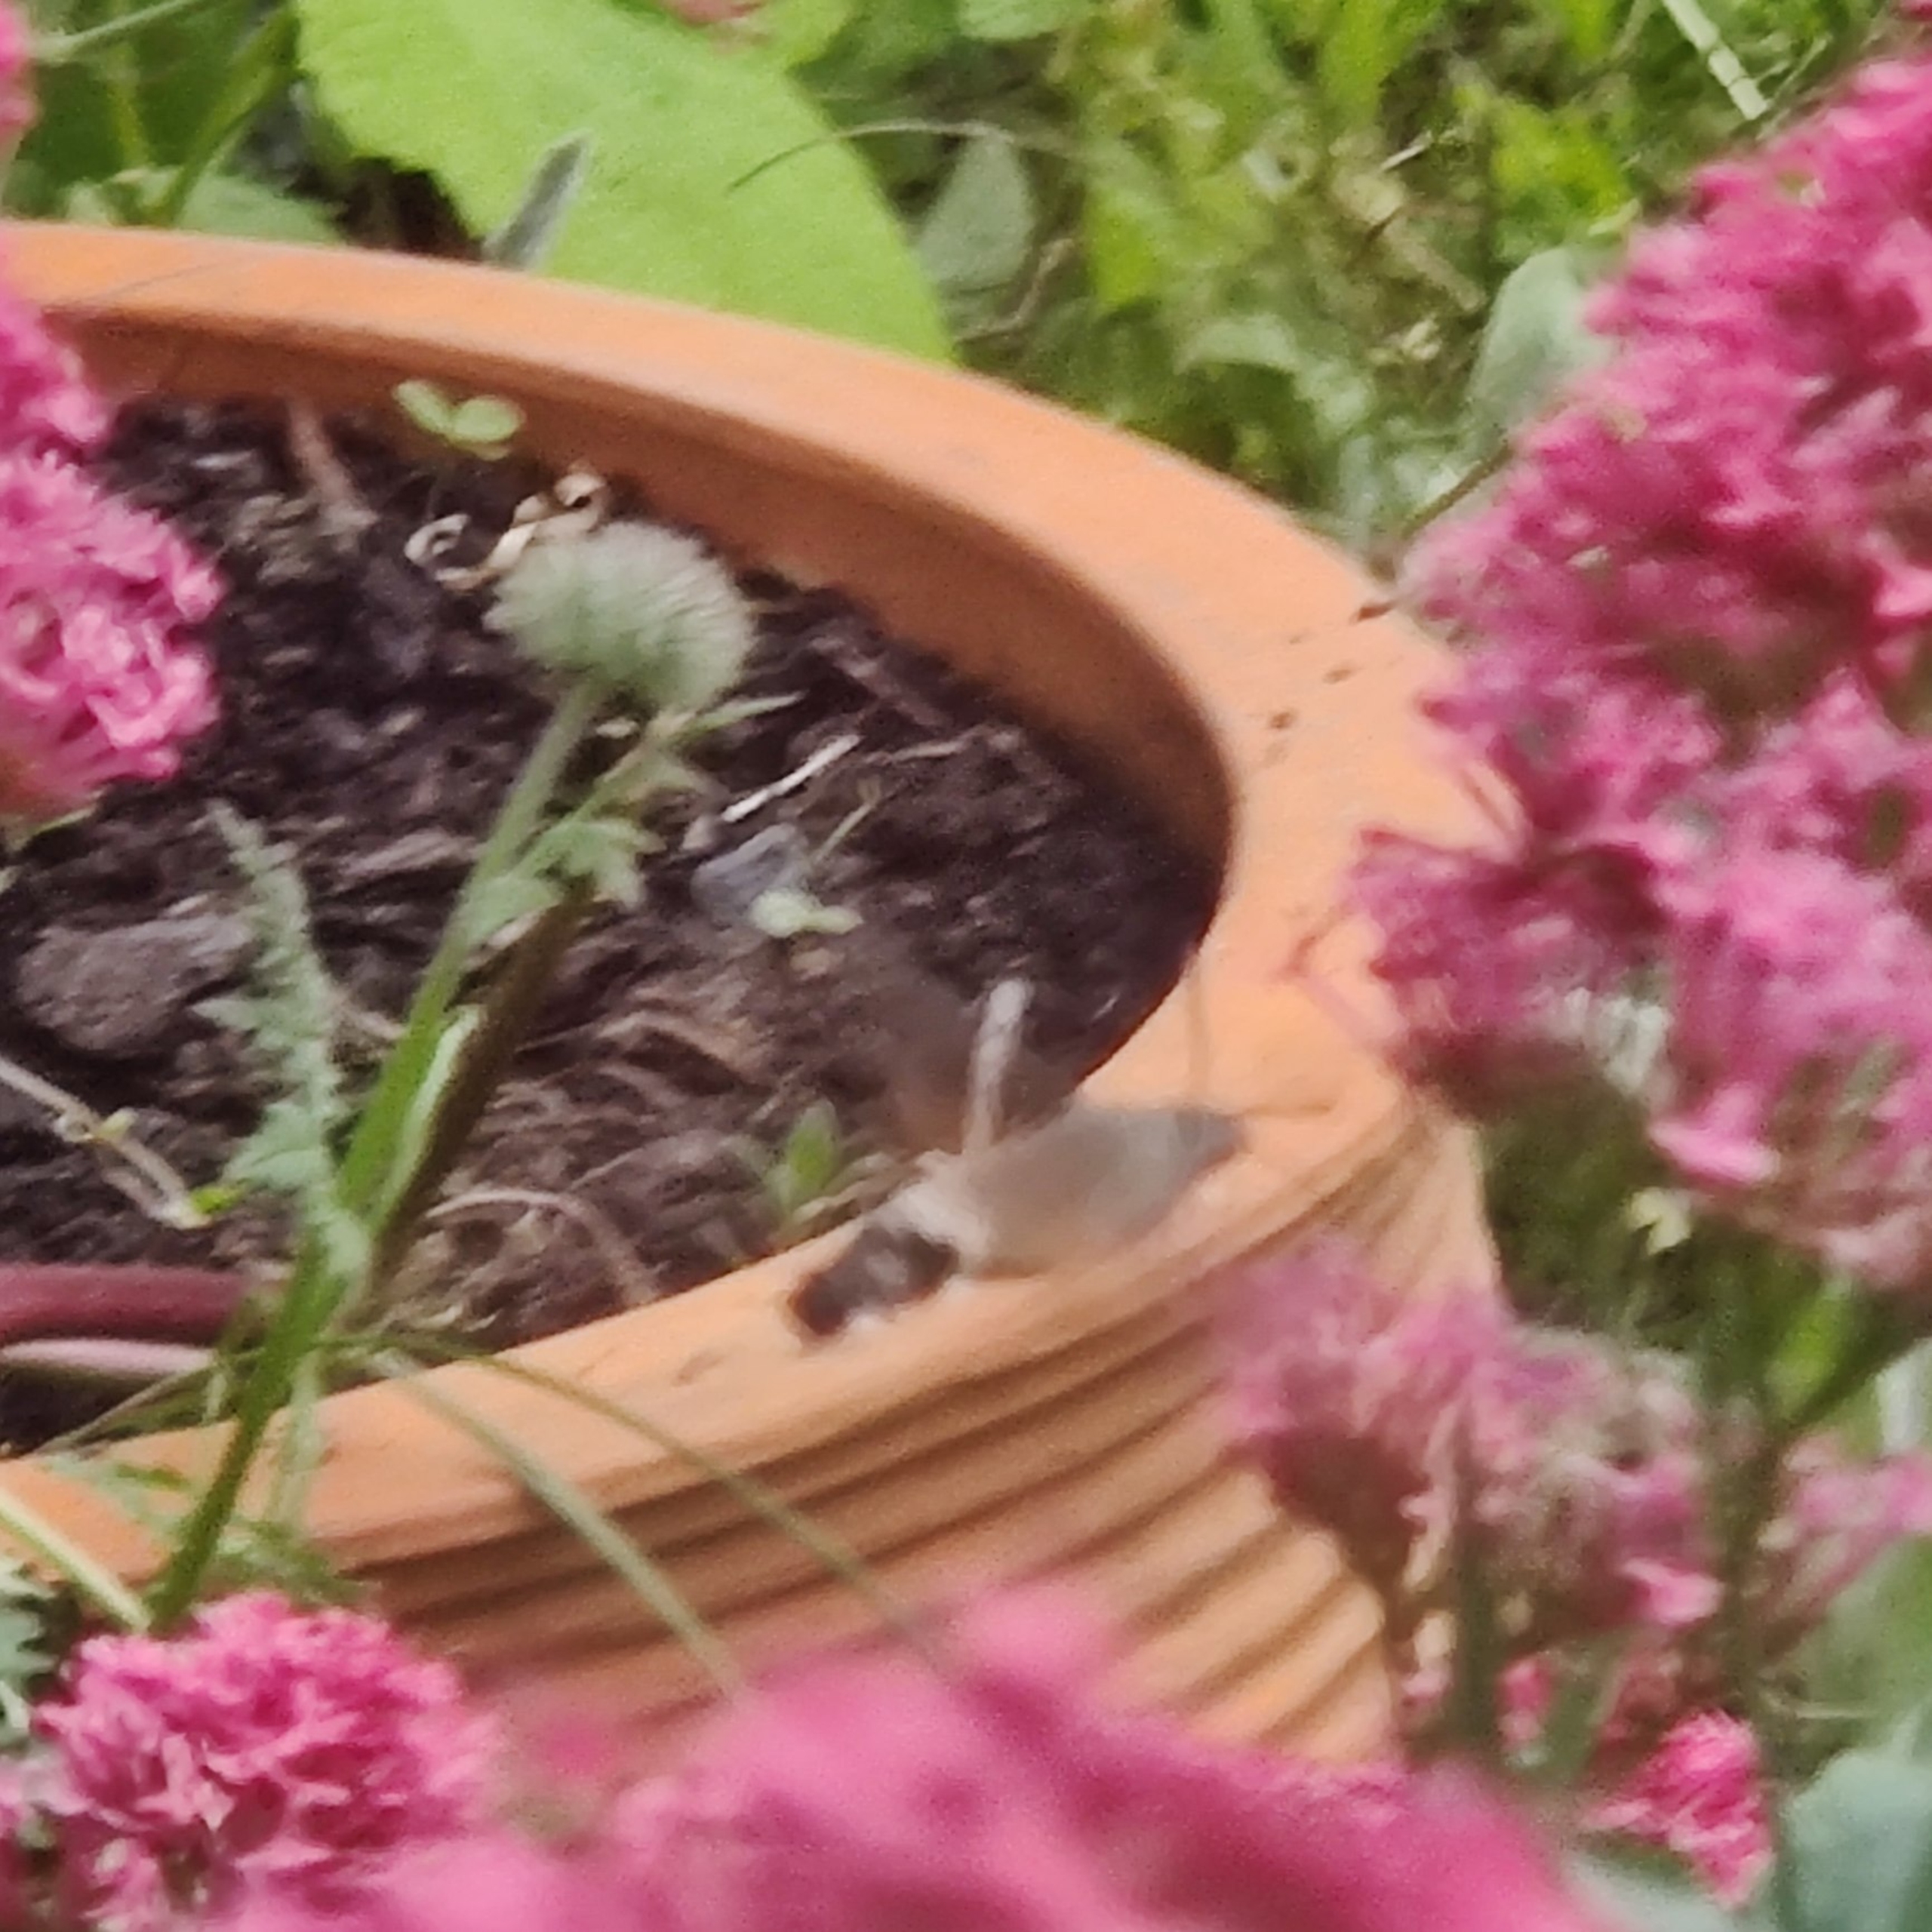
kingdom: Animalia
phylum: Arthropoda
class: Insecta
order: Lepidoptera
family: Sphingidae
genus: Macroglossum
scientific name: Macroglossum stellatarum
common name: Duehale
